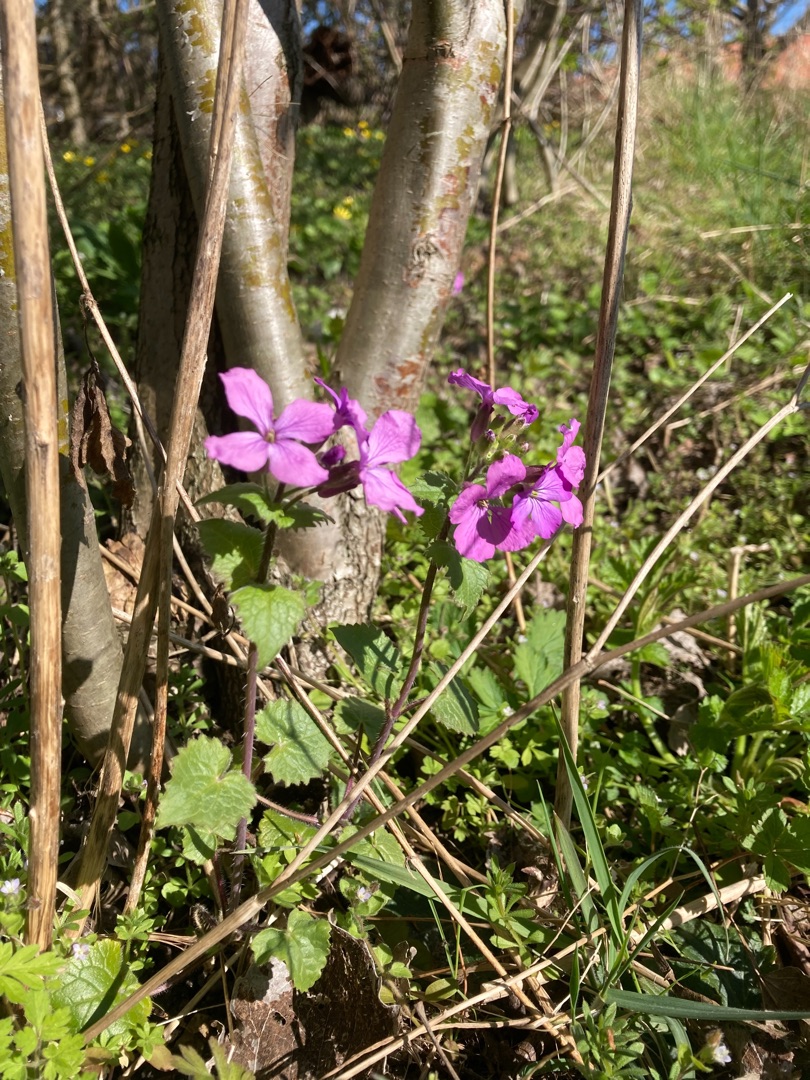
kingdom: Plantae
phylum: Tracheophyta
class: Magnoliopsida
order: Brassicales
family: Brassicaceae
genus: Lunaria
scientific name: Lunaria annua
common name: Judaspenge
